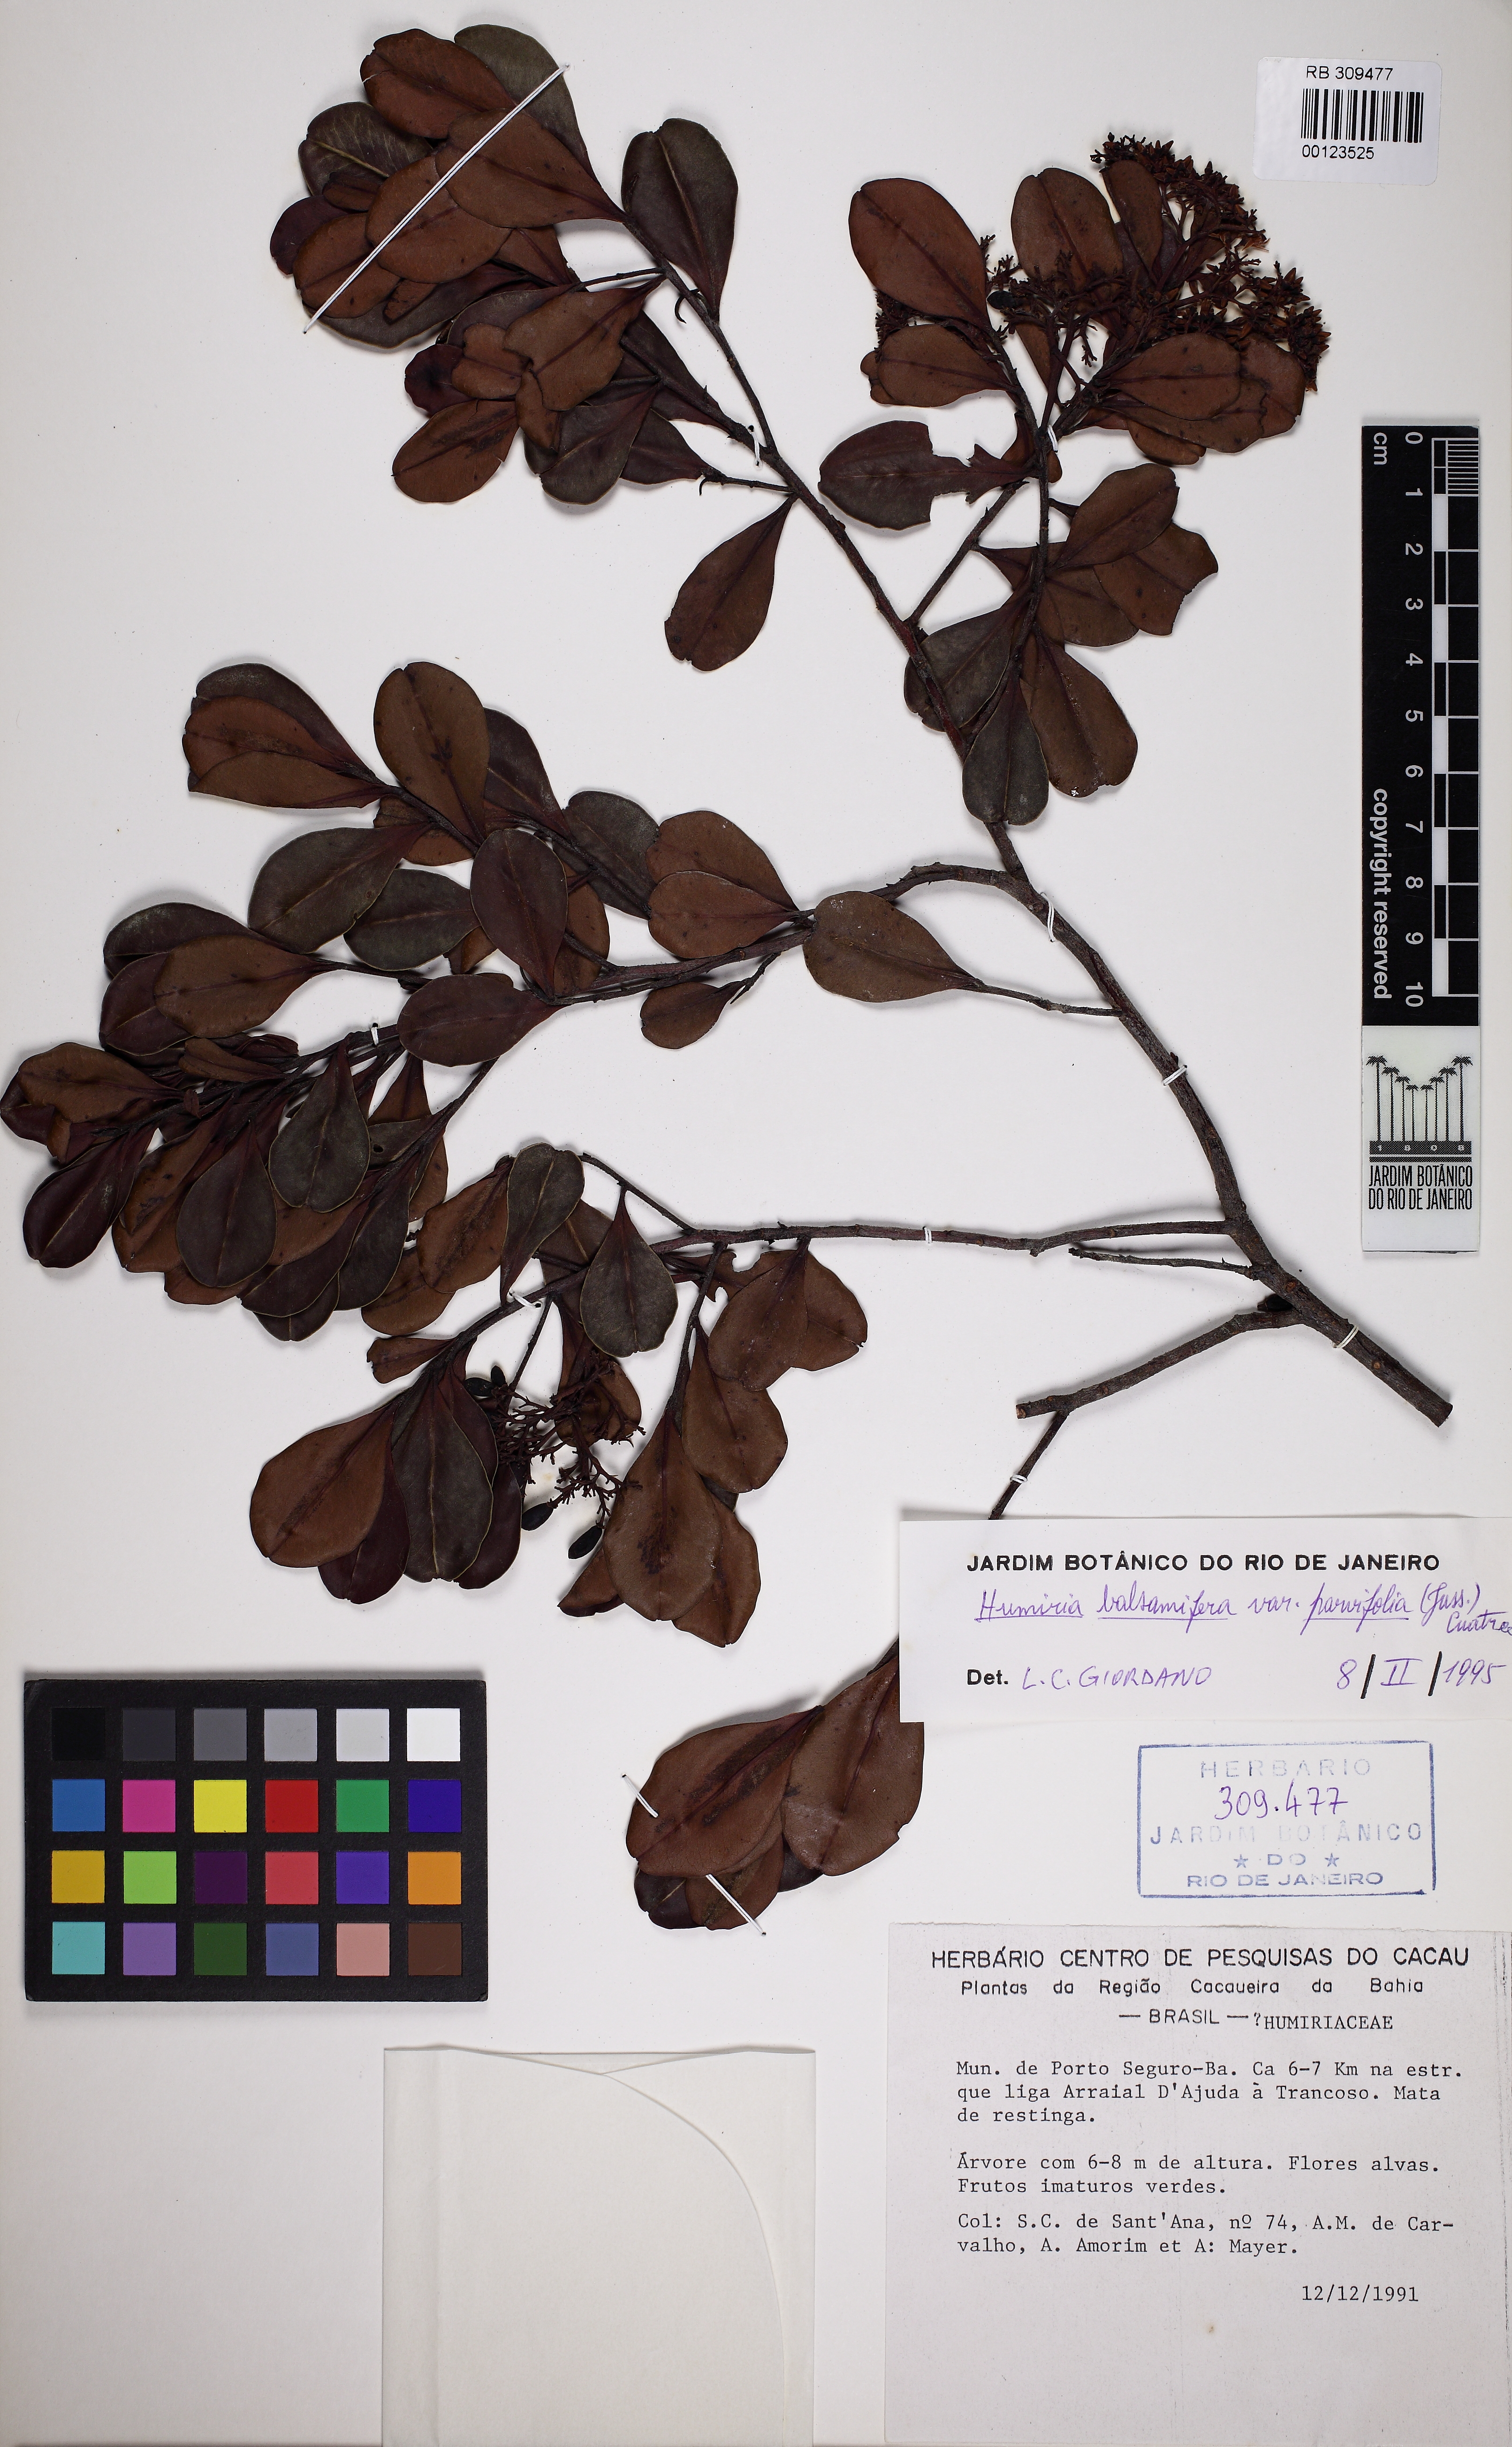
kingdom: Plantae
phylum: Tracheophyta
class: Magnoliopsida
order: Malpighiales
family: Humiriaceae
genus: Humiria
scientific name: Humiria parvifolia
